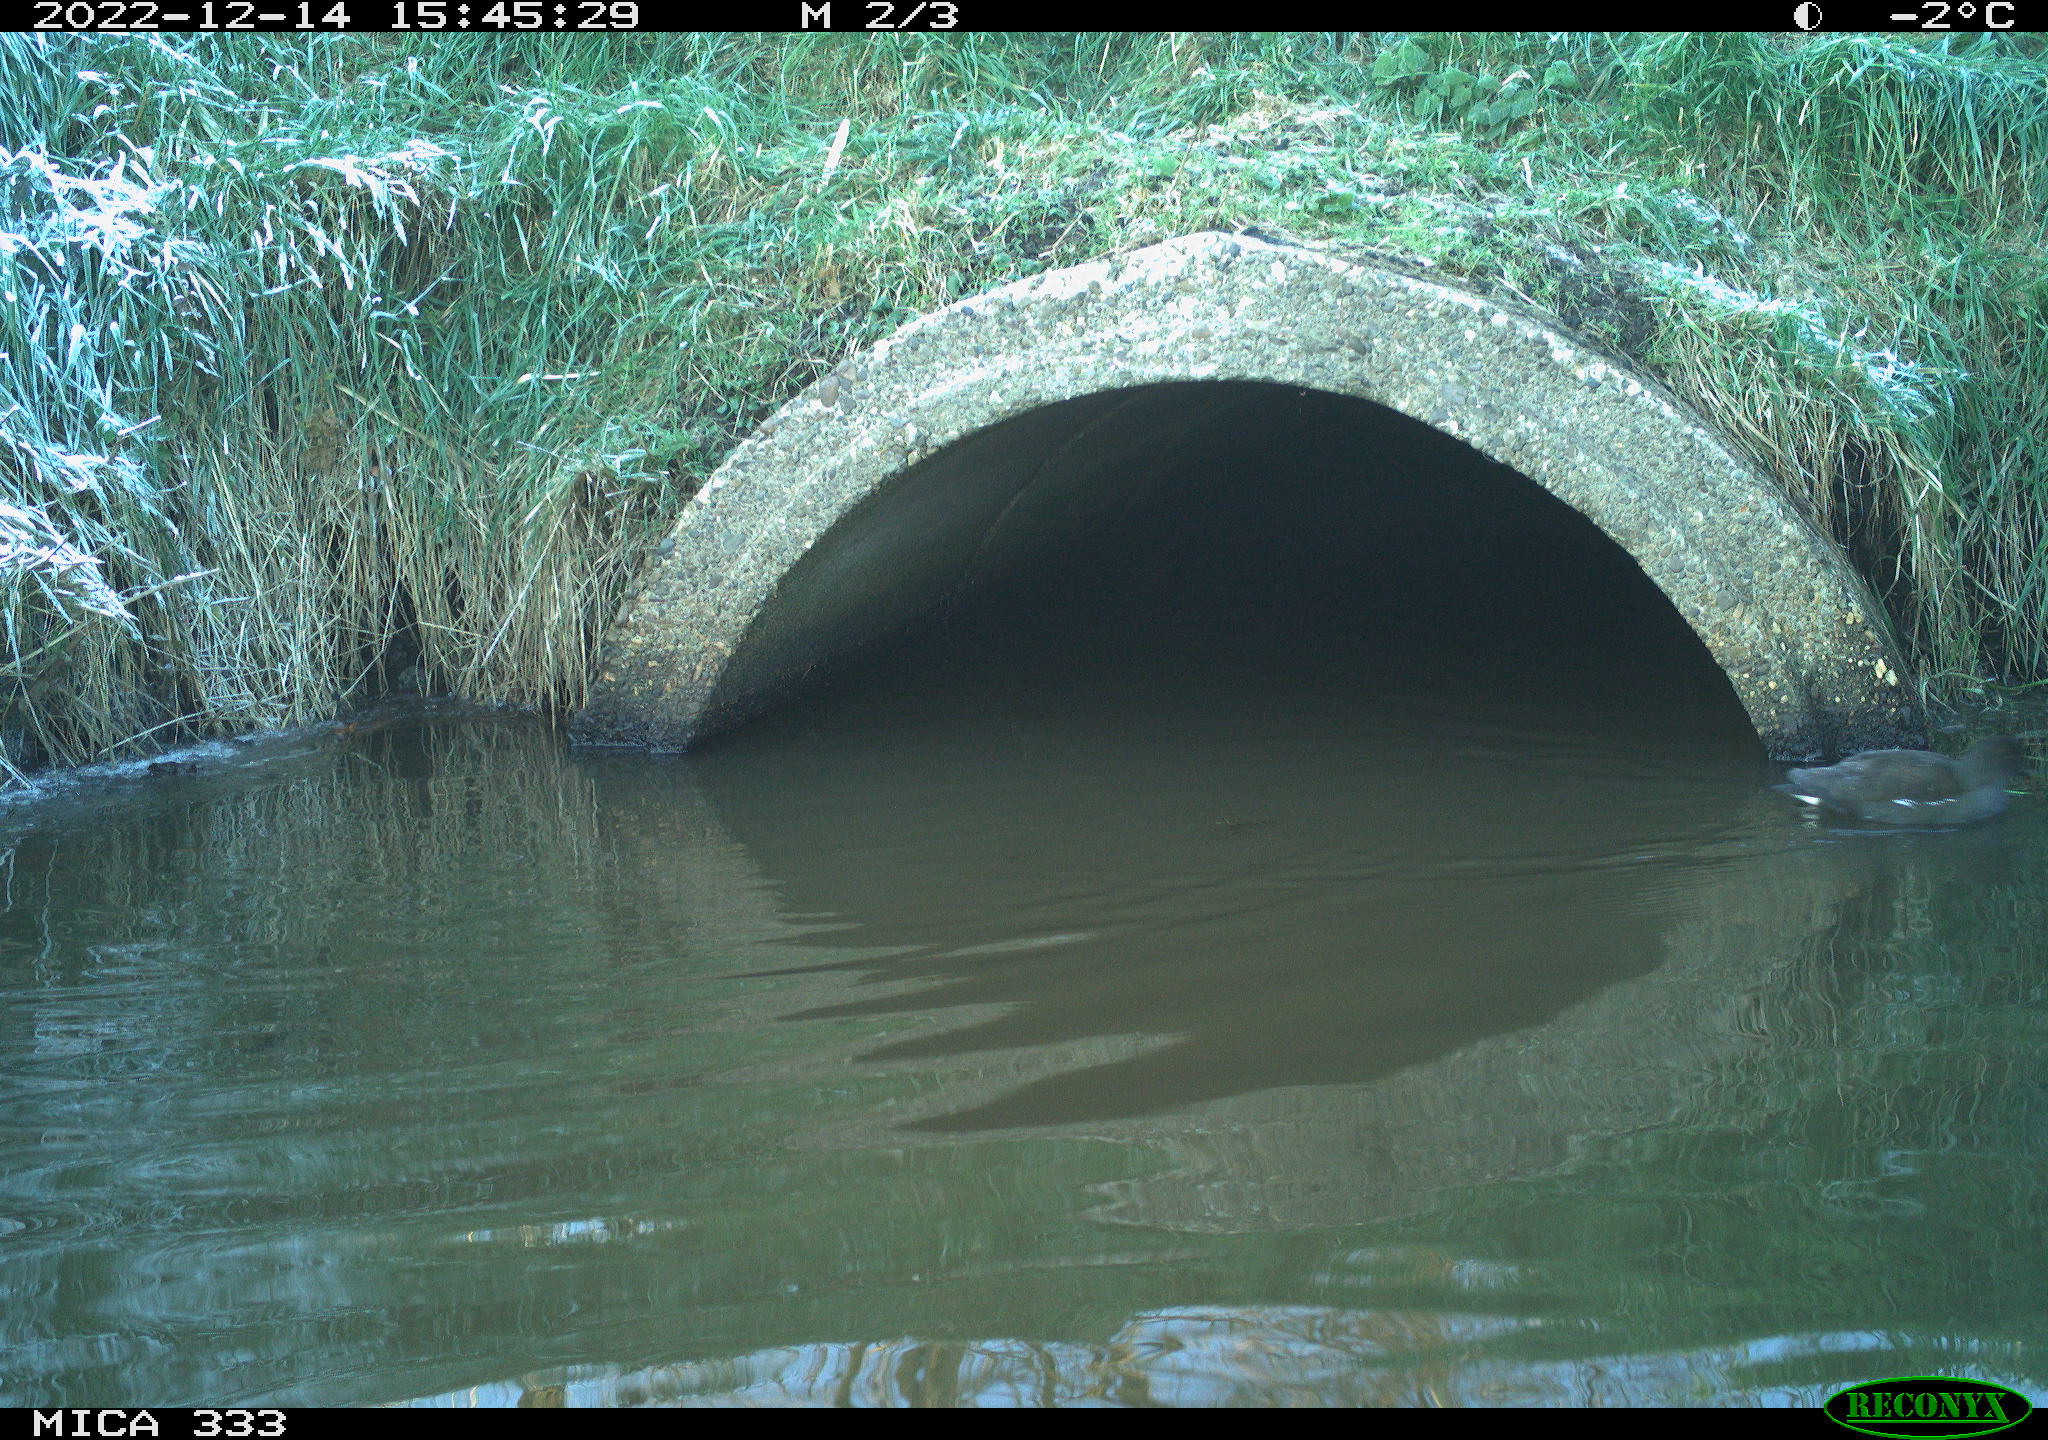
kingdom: Animalia
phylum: Chordata
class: Aves
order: Gruiformes
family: Rallidae
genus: Gallinula
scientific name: Gallinula chloropus
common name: Common moorhen
